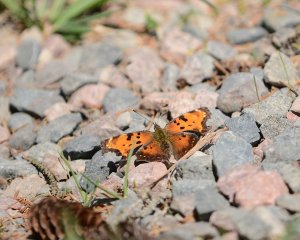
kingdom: Animalia
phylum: Arthropoda
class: Insecta
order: Lepidoptera
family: Nymphalidae
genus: Polygonia
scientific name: Polygonia progne
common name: Gray Comma
